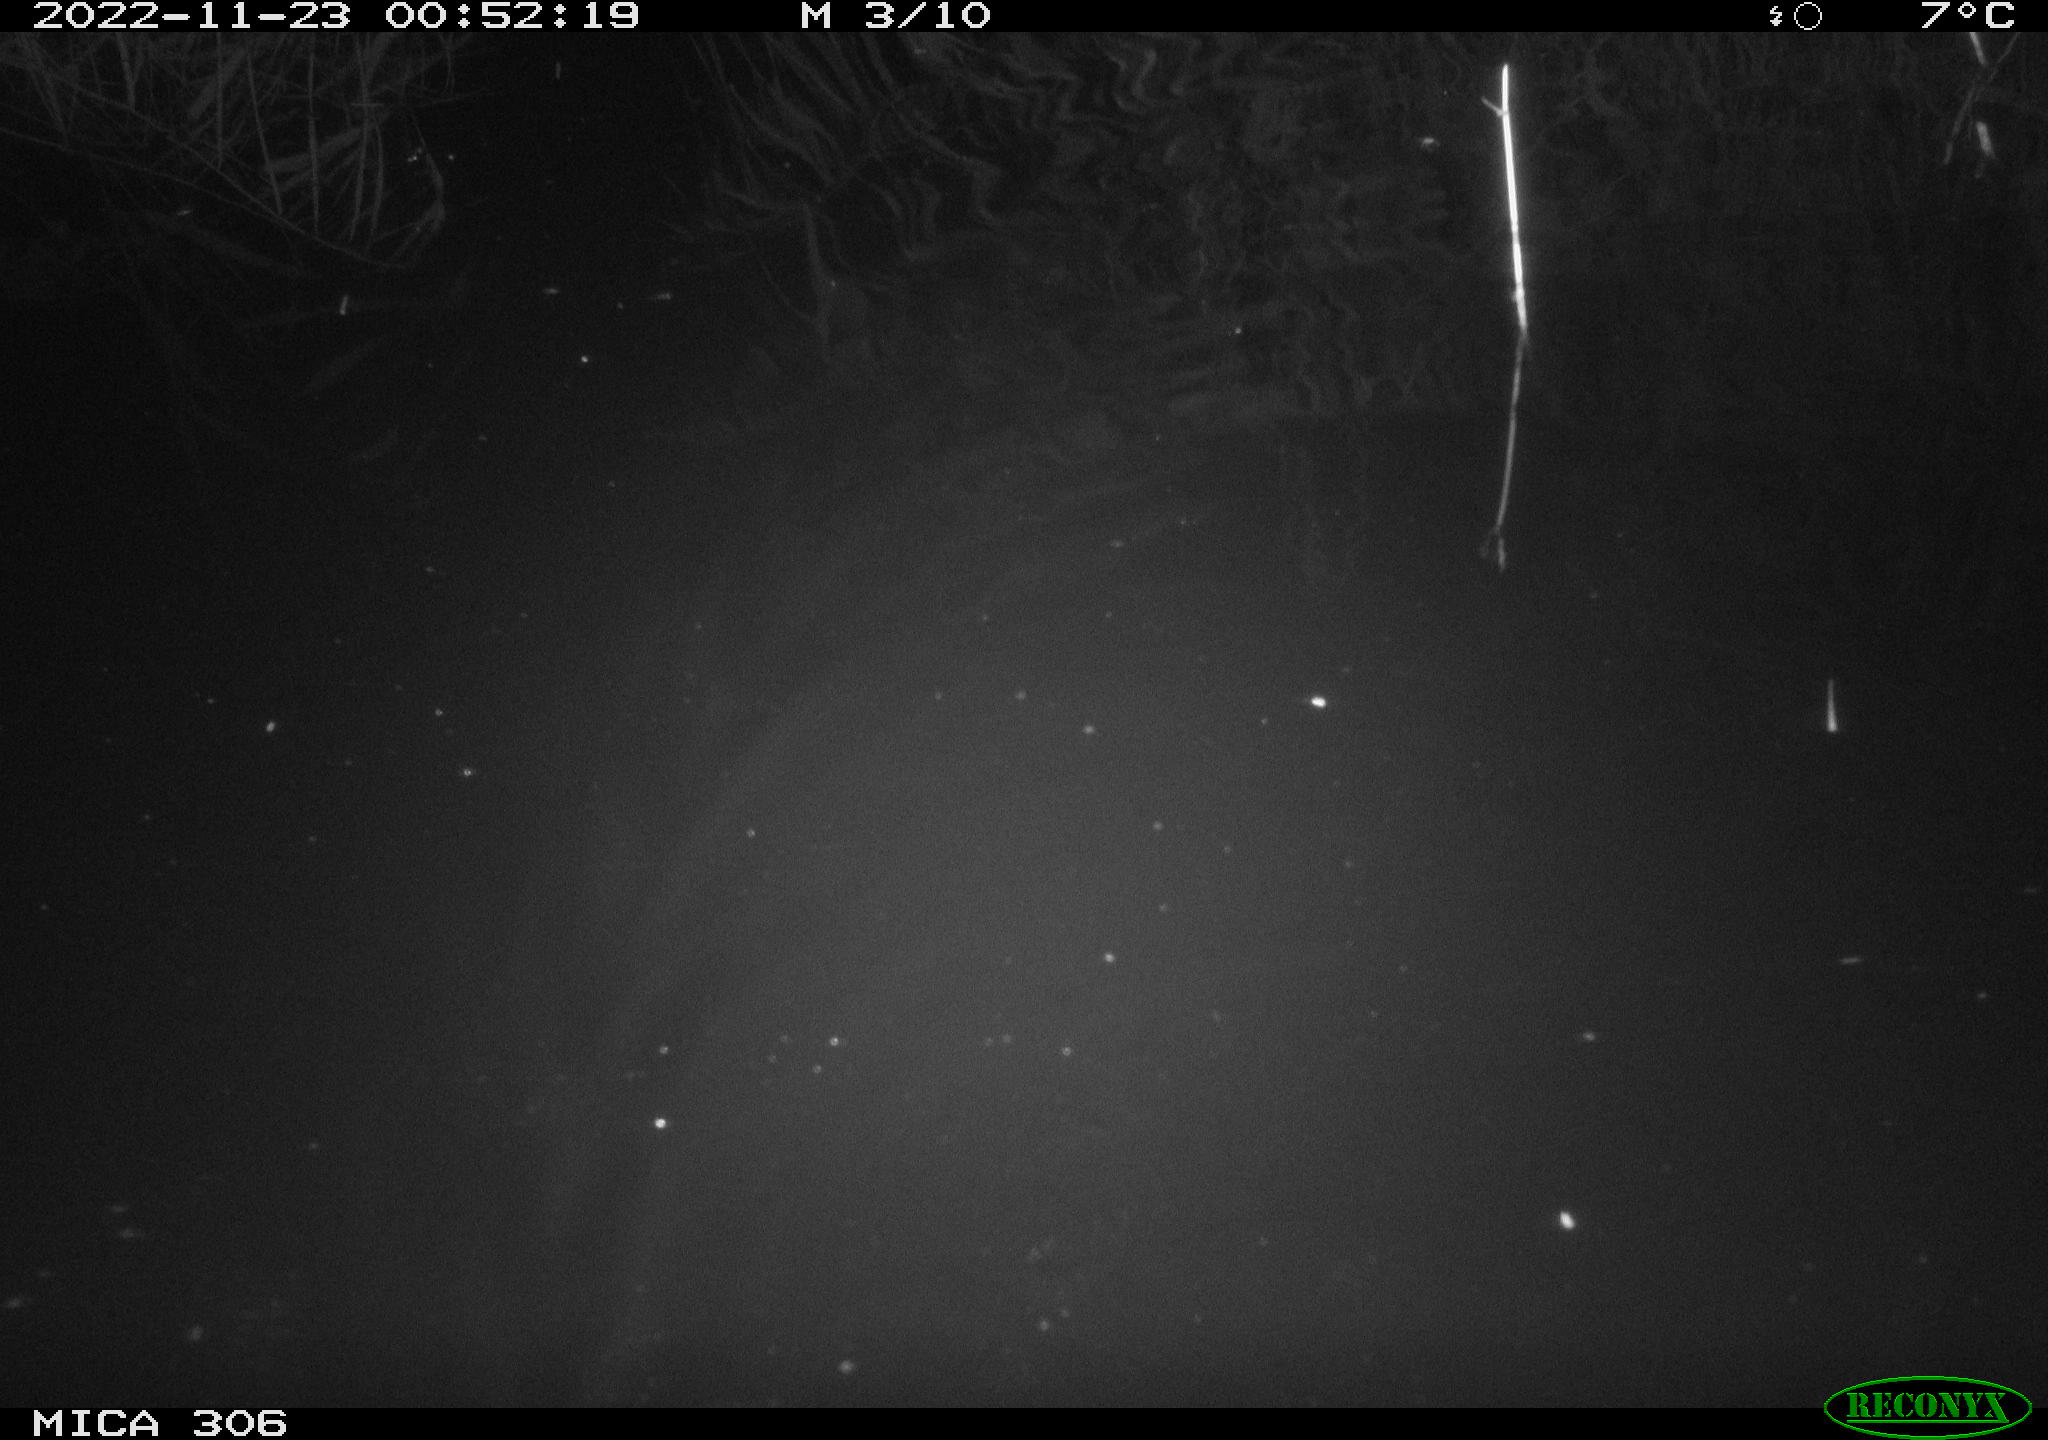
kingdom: Animalia
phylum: Chordata
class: Mammalia
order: Rodentia
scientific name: Rodentia
